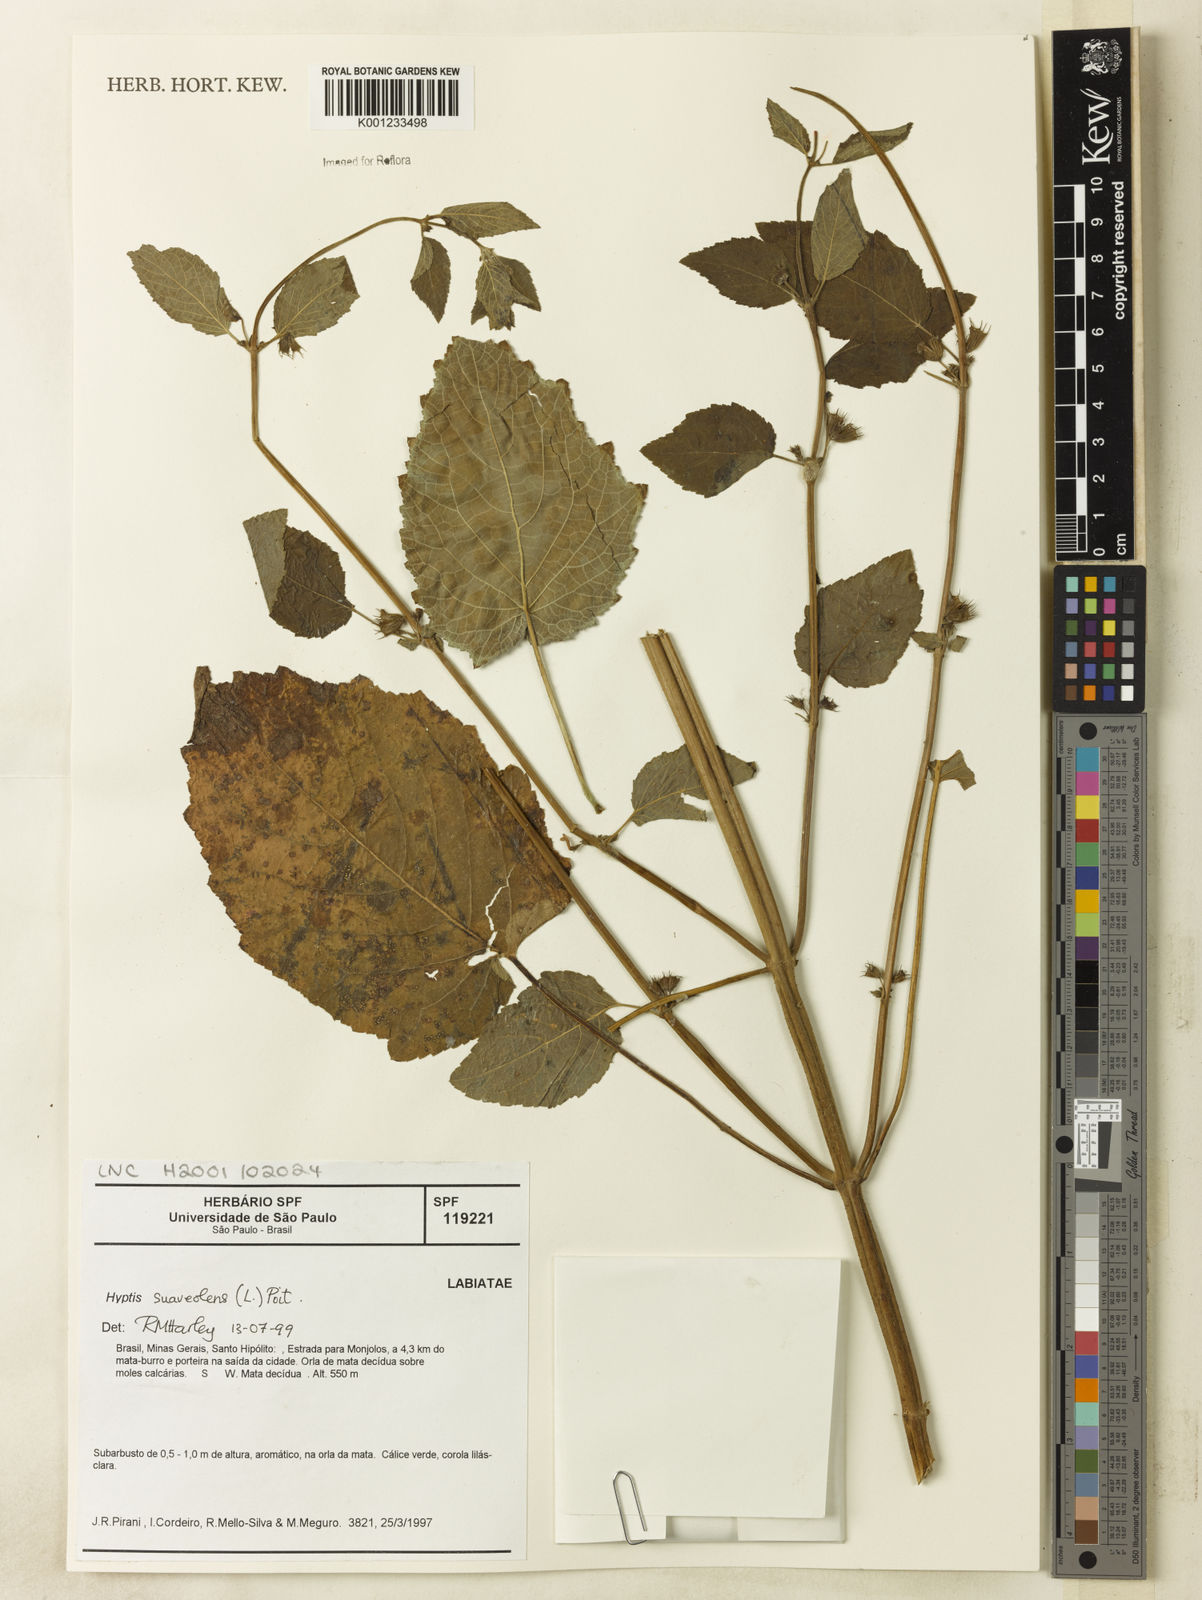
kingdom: Plantae
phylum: Tracheophyta
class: Magnoliopsida
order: Lamiales
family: Lamiaceae
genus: Mesosphaerum
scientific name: Mesosphaerum suaveolens
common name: Pignut
